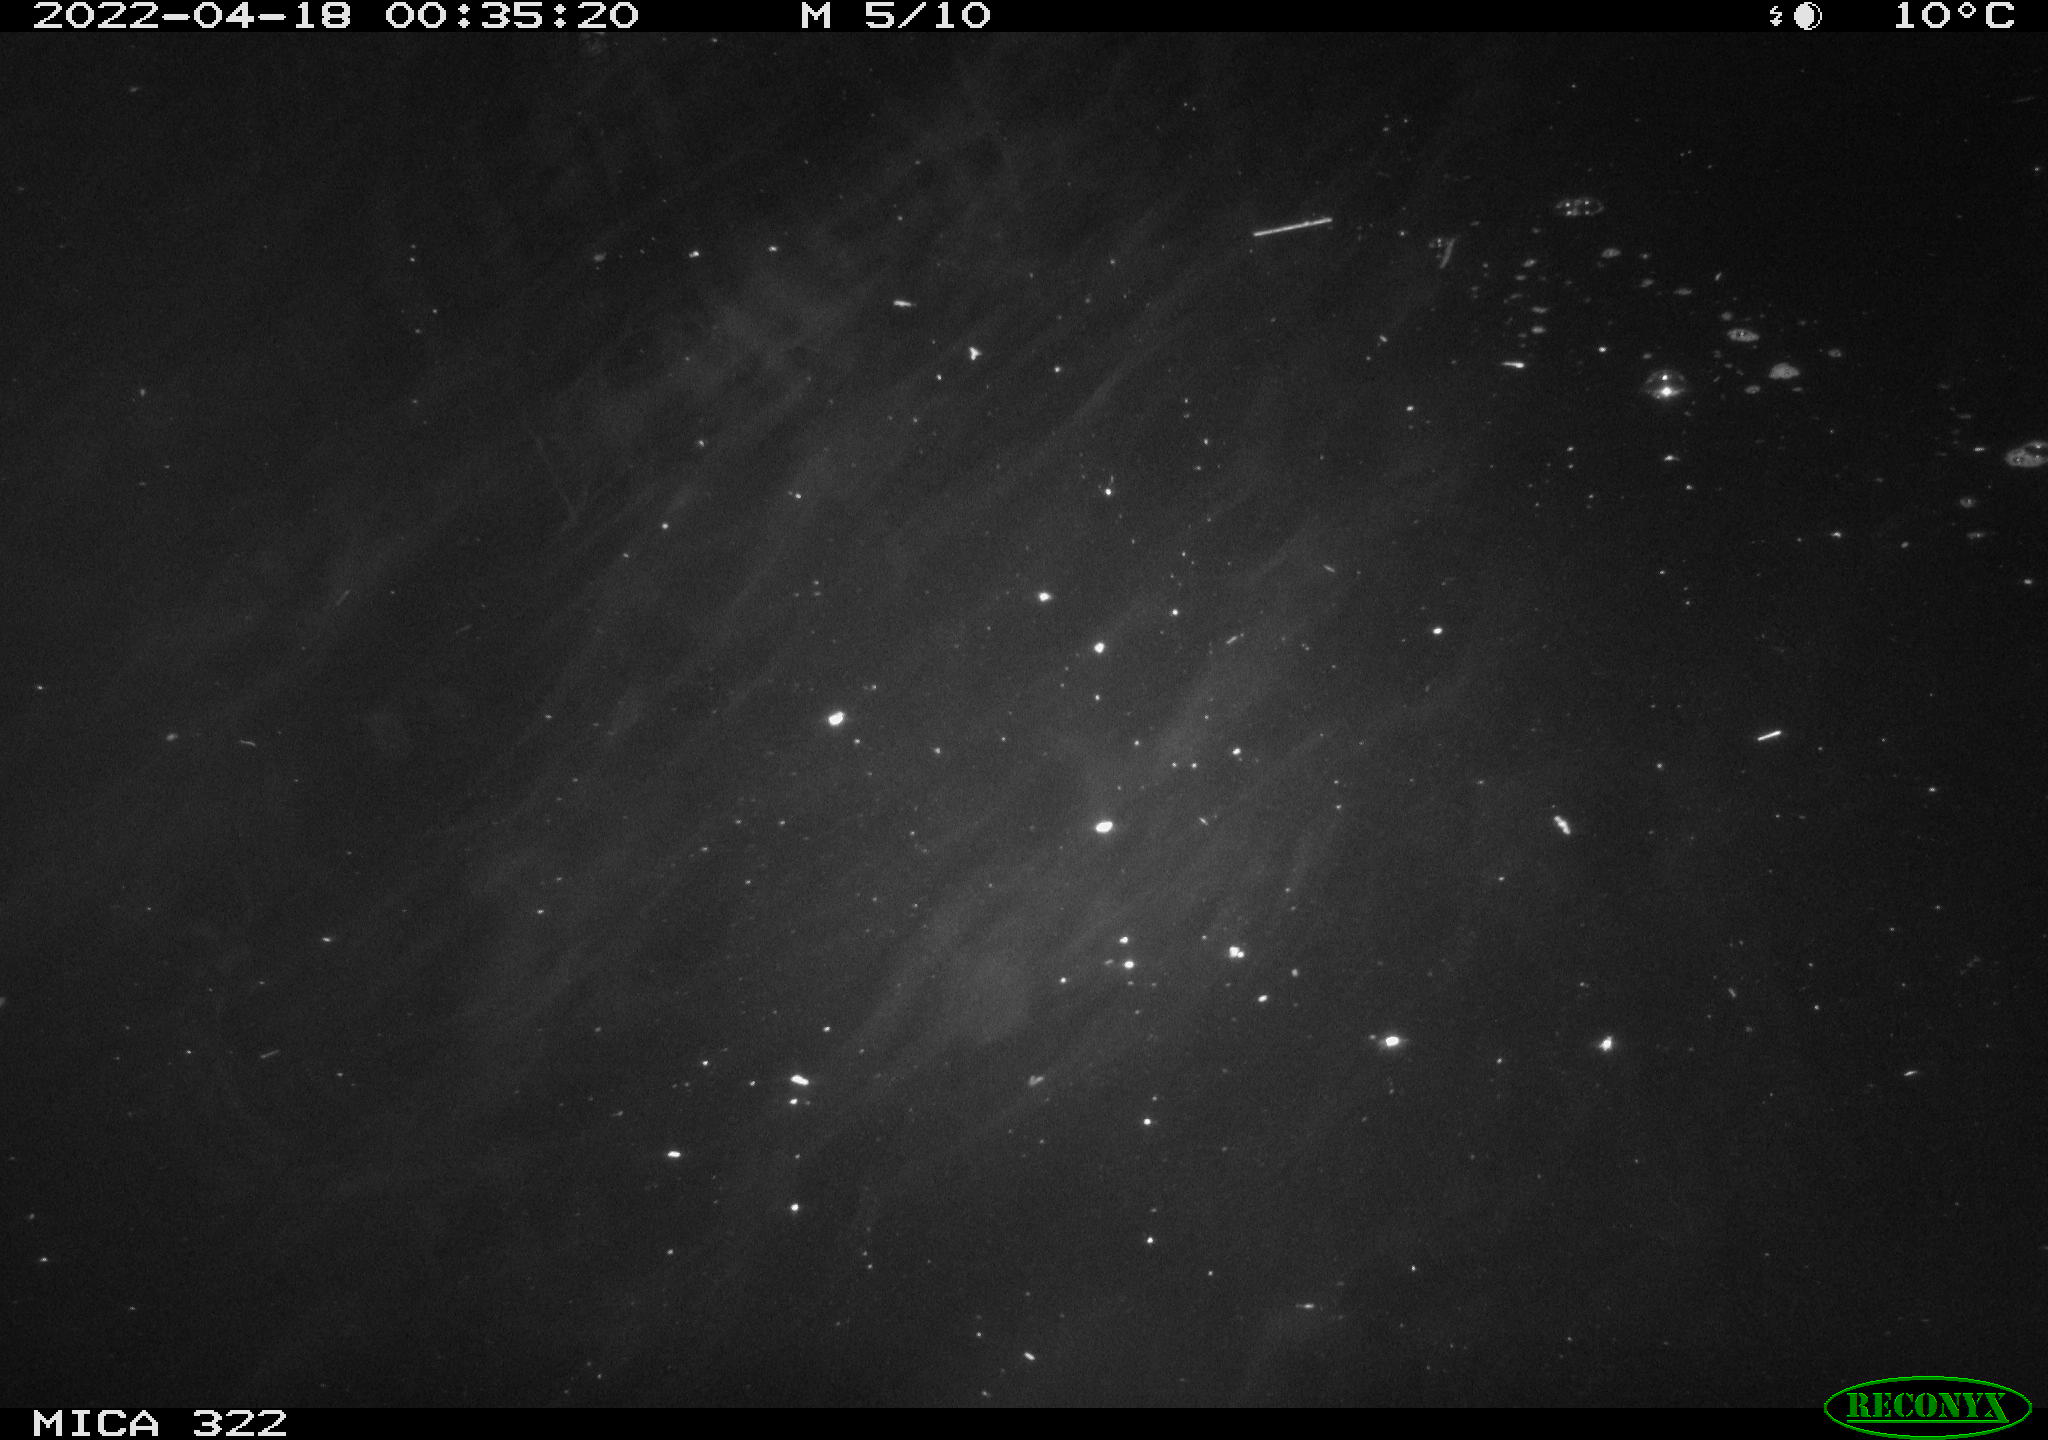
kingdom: Animalia
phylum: Chordata
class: Aves
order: Anseriformes
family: Anatidae
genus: Anas
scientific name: Anas platyrhynchos
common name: Mallard
